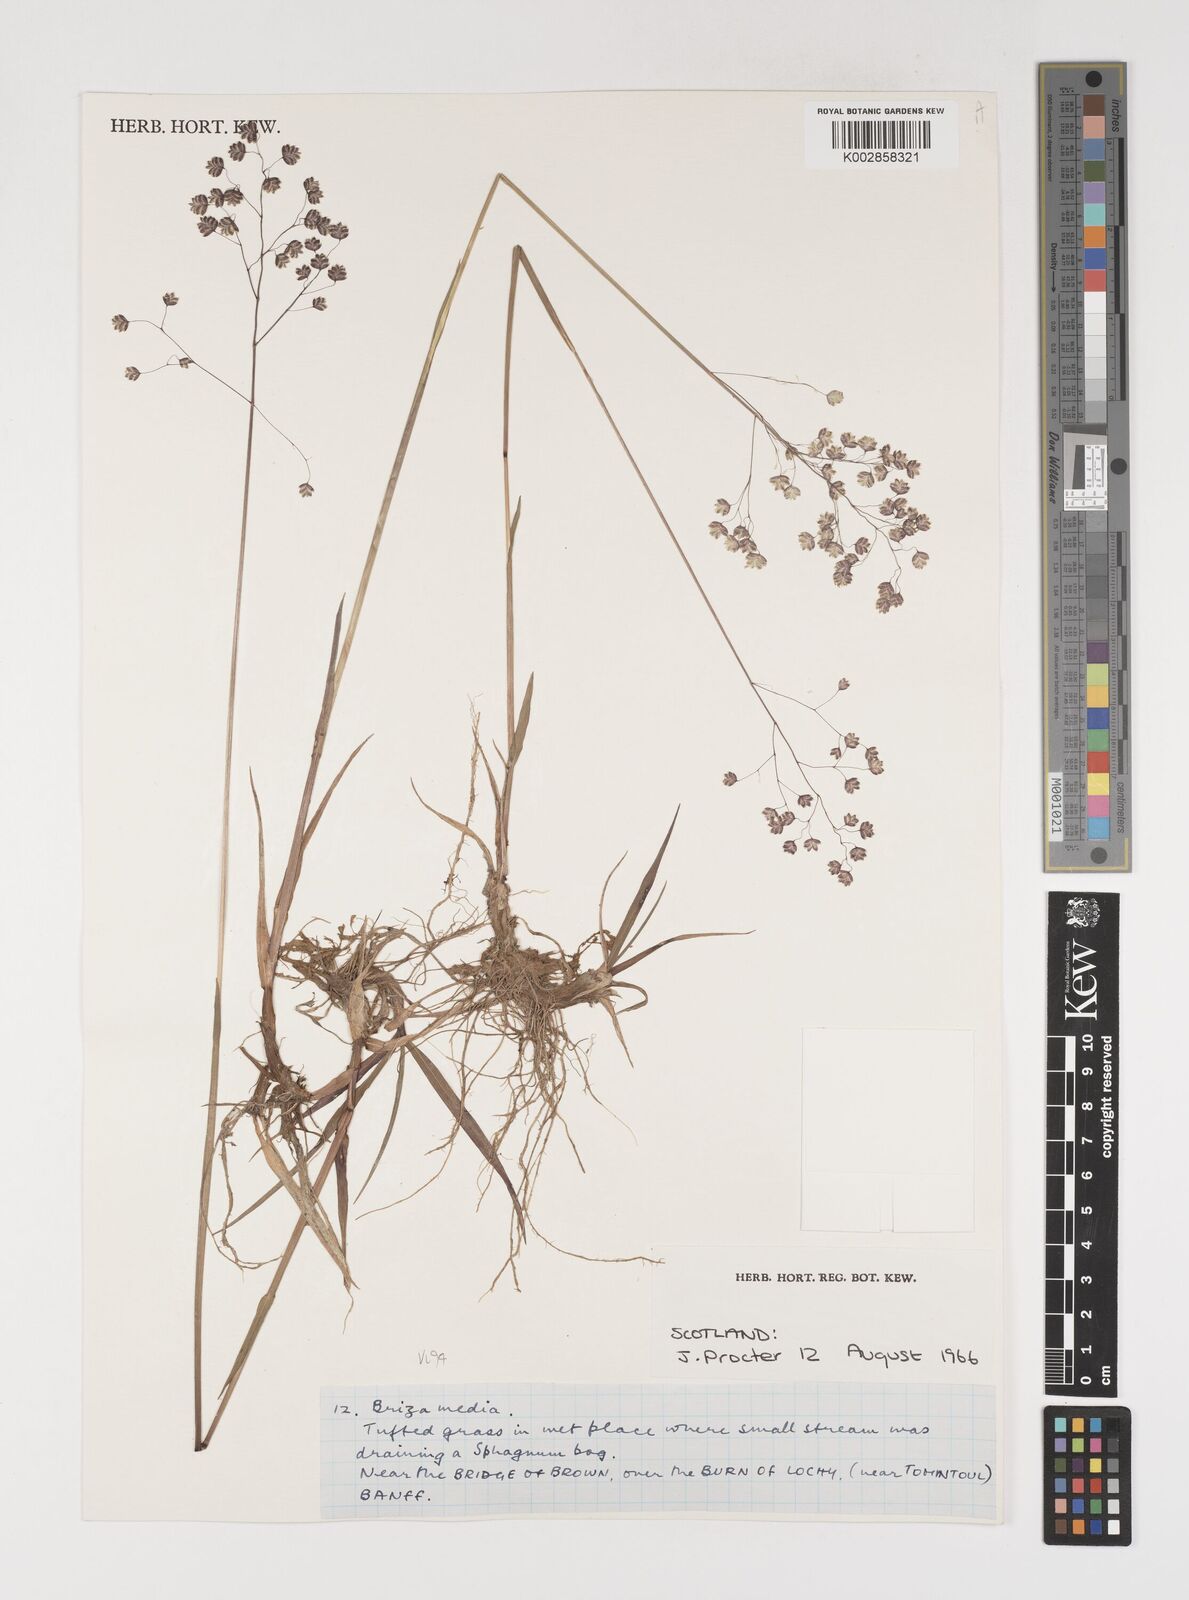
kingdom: Plantae
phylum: Tracheophyta
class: Liliopsida
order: Poales
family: Poaceae
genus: Briza
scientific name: Briza media
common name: Quaking grass
